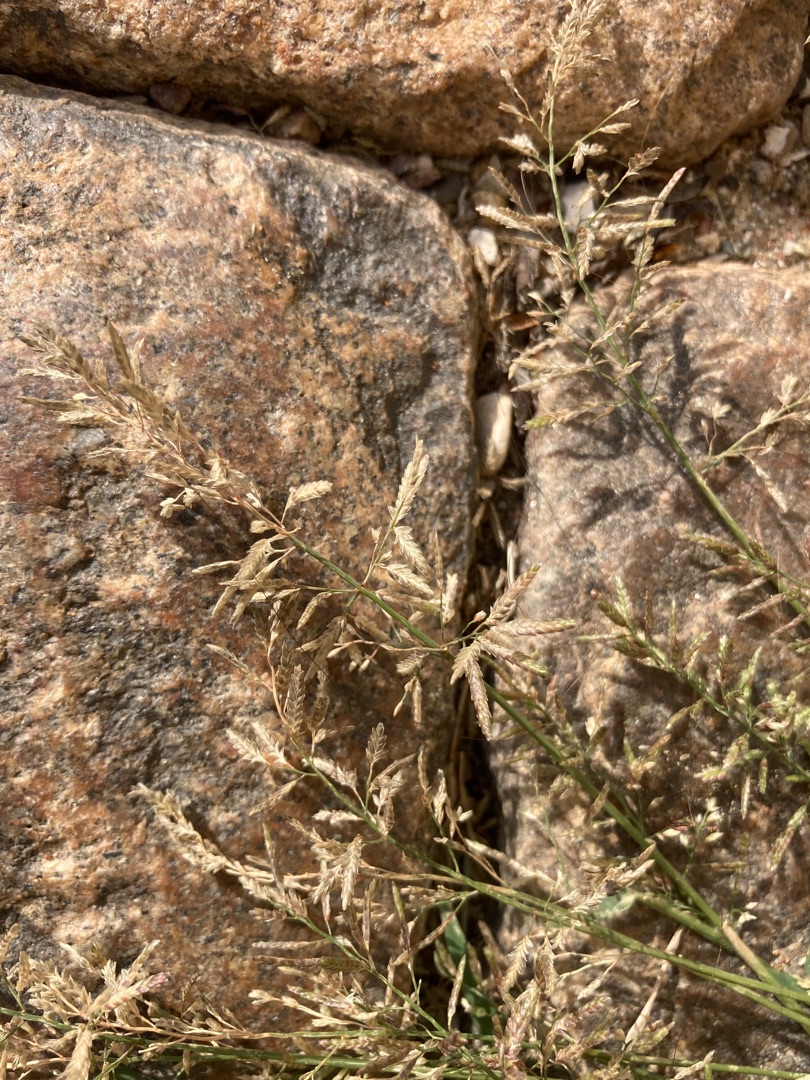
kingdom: Plantae
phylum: Tracheophyta
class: Liliopsida
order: Poales
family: Poaceae
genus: Eragrostis
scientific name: Eragrostis minor
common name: Liden kærlighedsgræs
